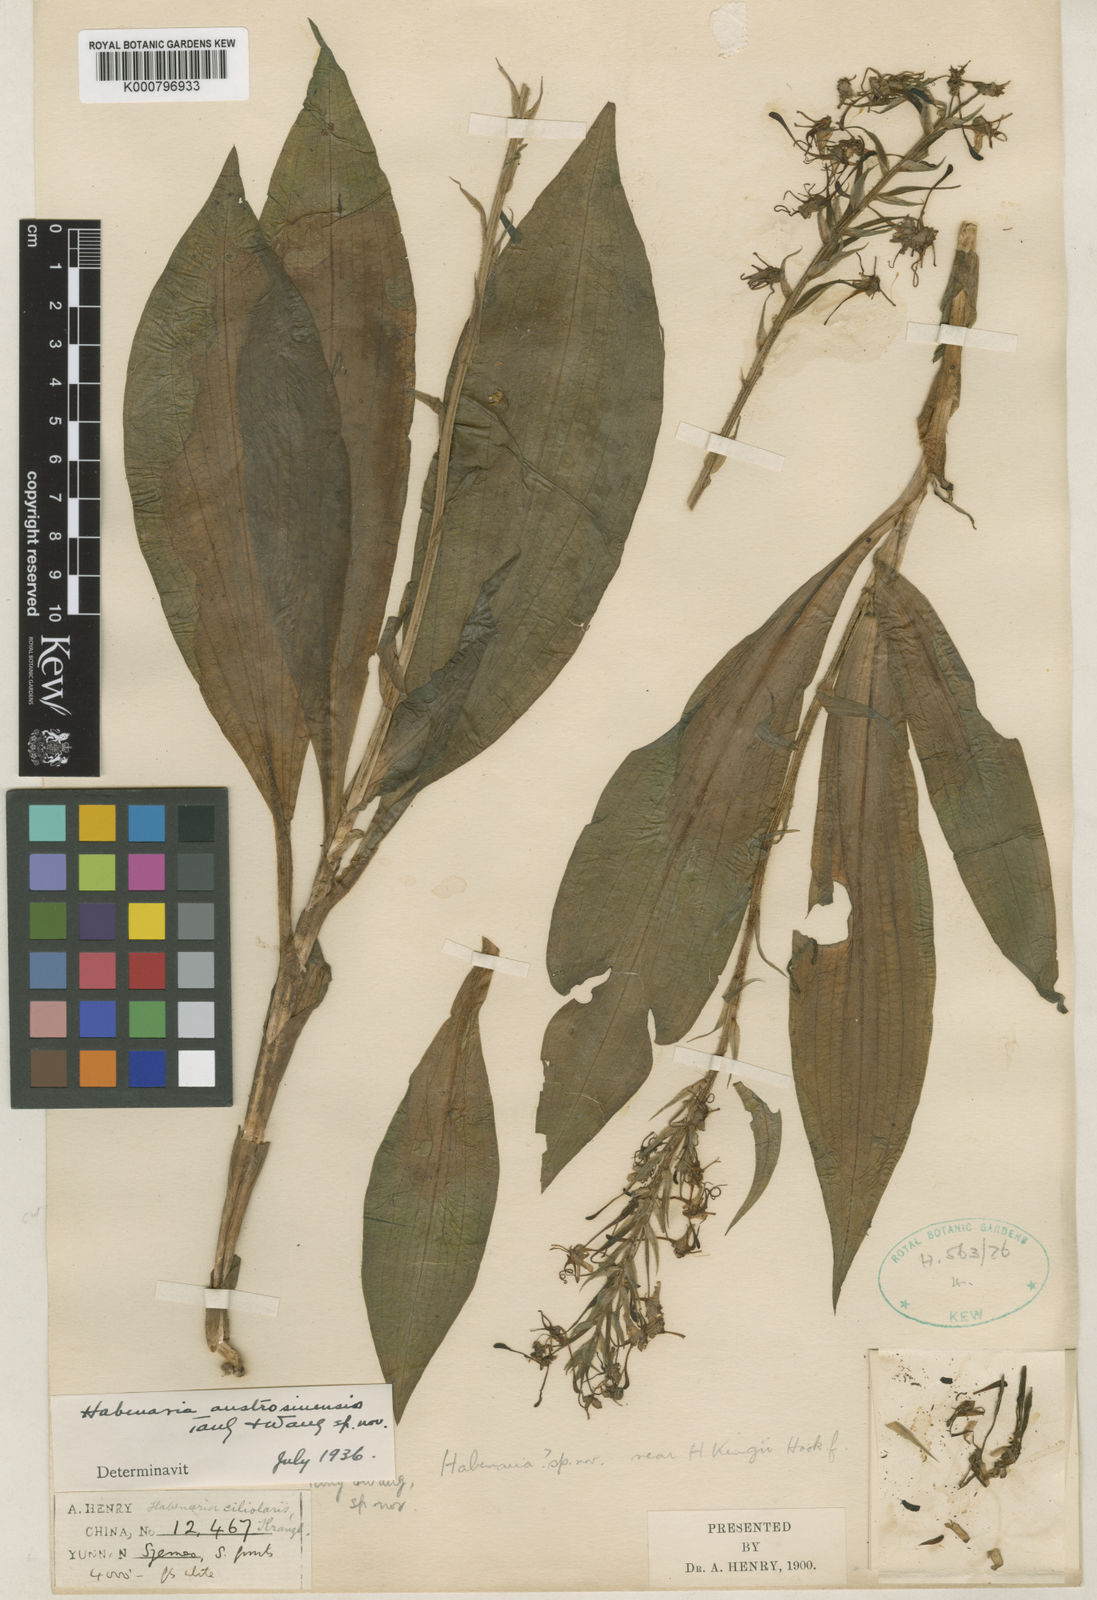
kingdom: Plantae
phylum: Tracheophyta
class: Liliopsida
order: Asparagales
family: Orchidaceae
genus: Habenaria
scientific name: Habenaria austrosinensis
